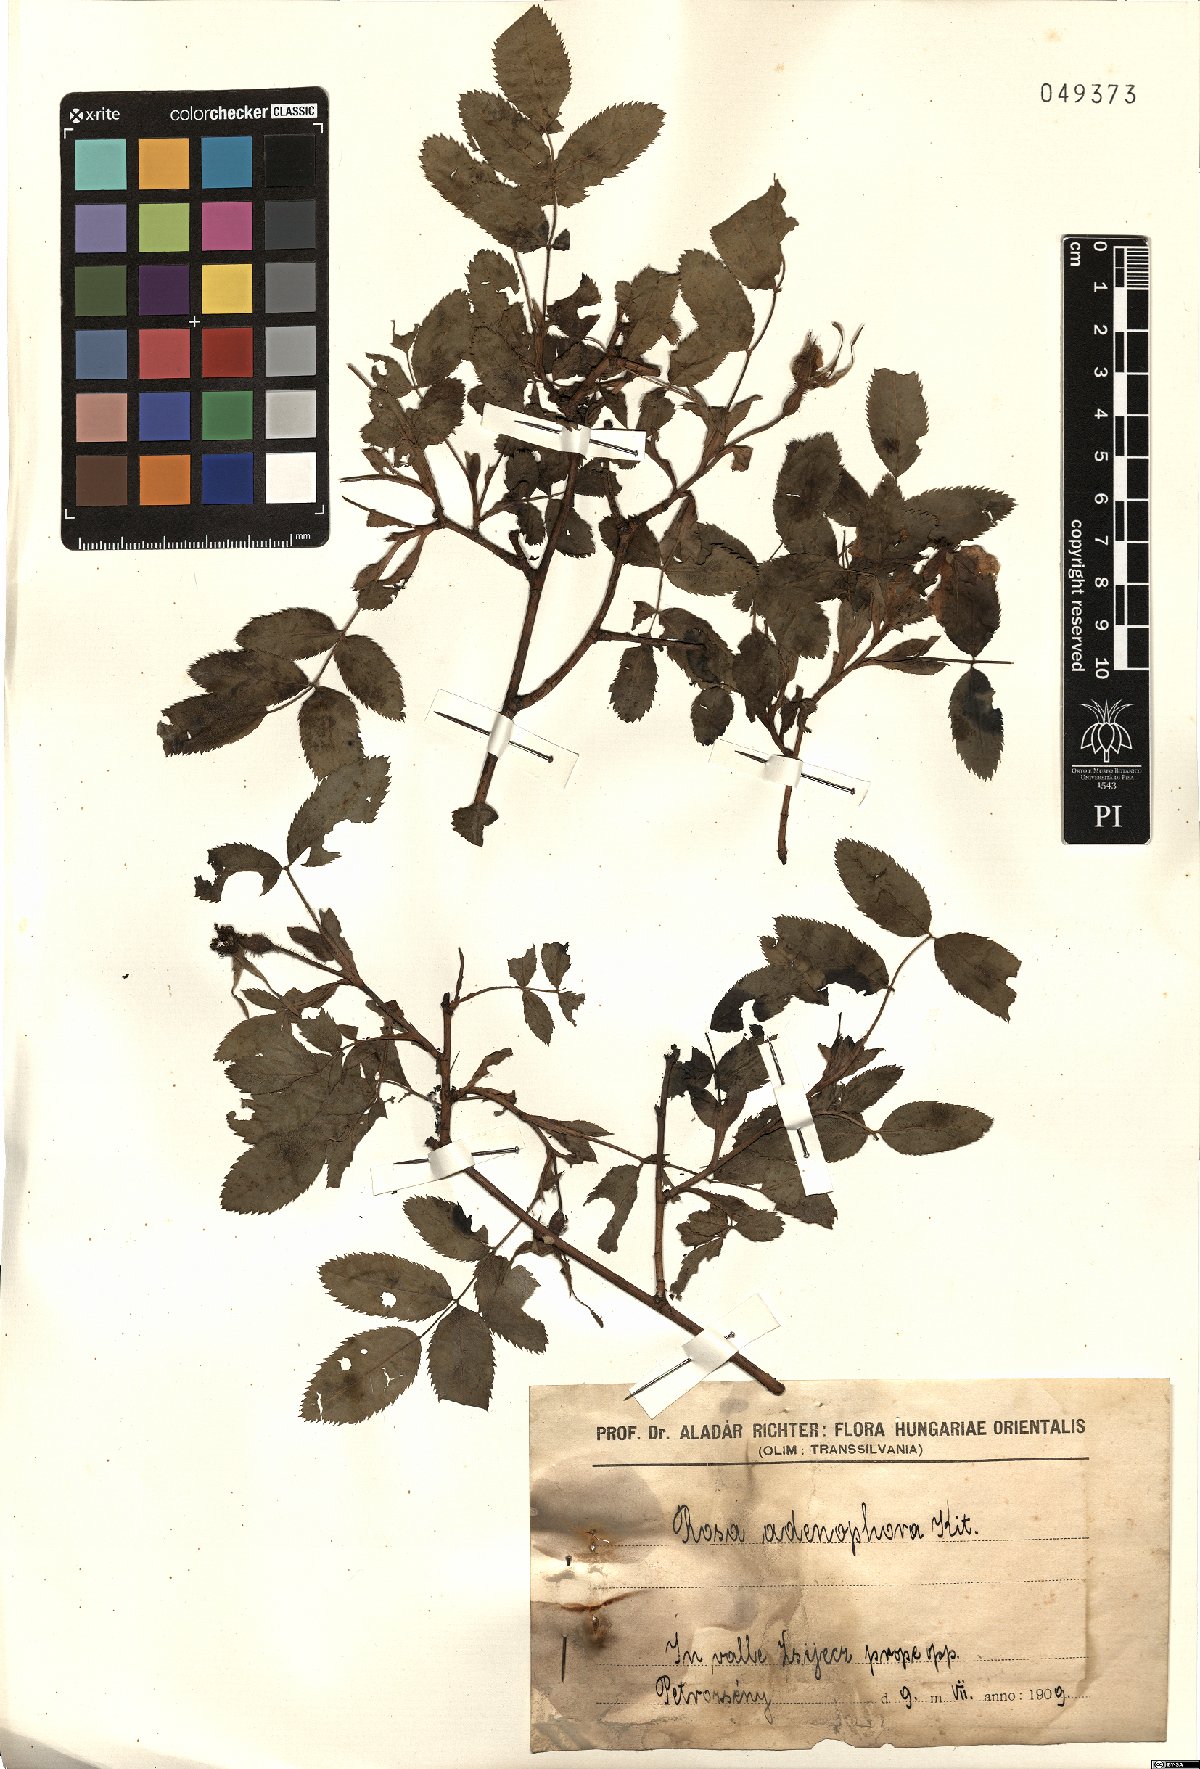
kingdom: Plantae
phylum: Tracheophyta
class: Magnoliopsida
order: Rosales
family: Rosaceae
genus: Rosa
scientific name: Rosa pendulina
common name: Alpine rose
